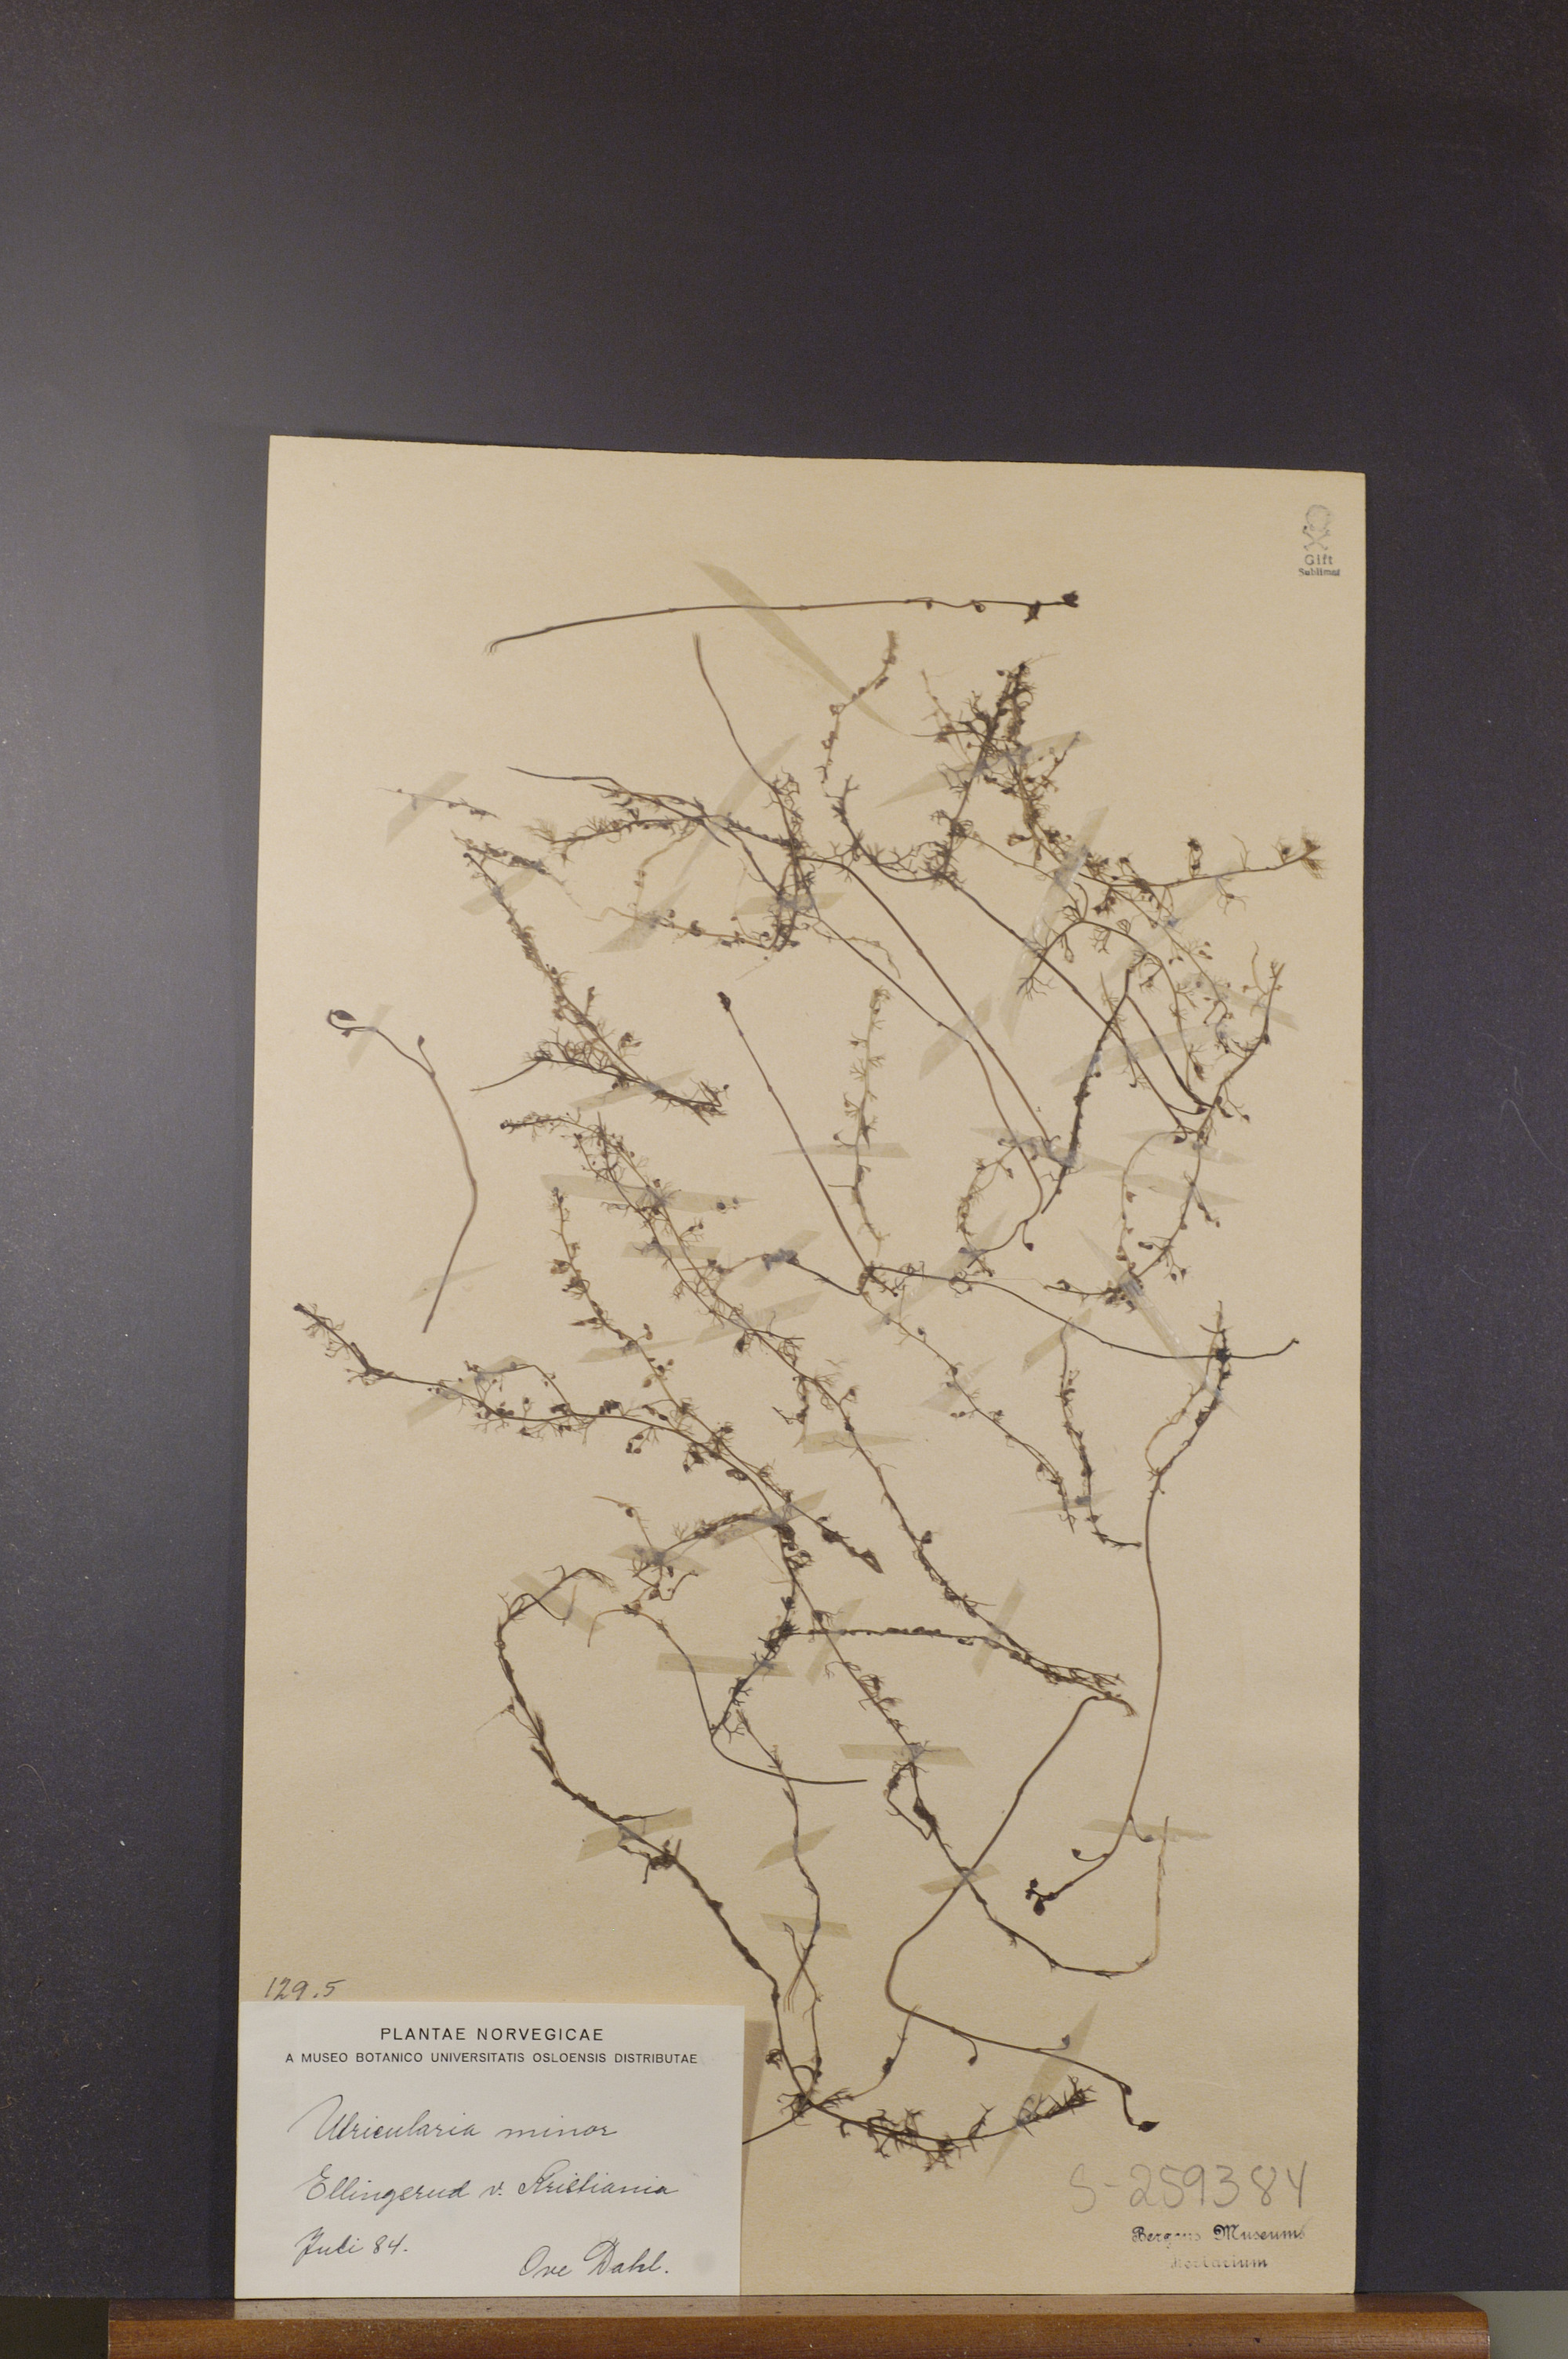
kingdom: Plantae
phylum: Tracheophyta
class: Magnoliopsida
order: Lamiales
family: Lentibulariaceae
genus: Utricularia
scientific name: Utricularia minor
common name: Lesser bladderwort
